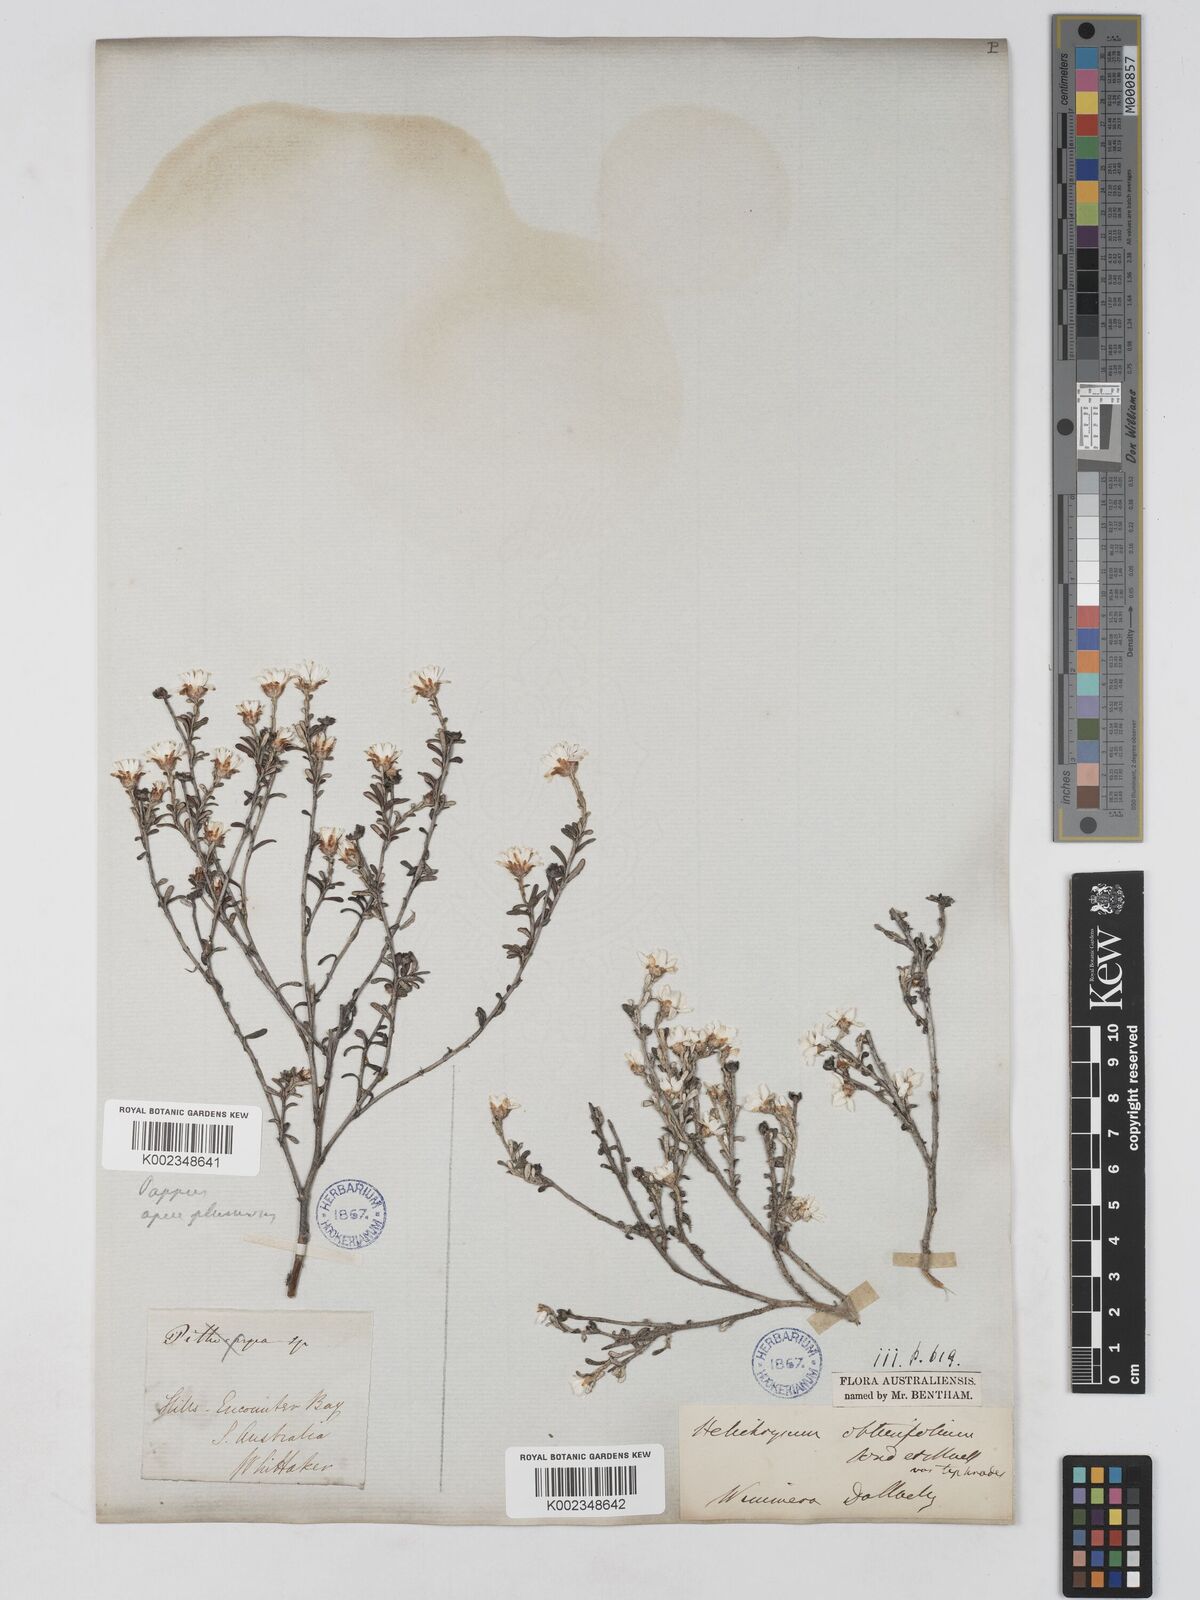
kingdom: Plantae
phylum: Tracheophyta
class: Magnoliopsida
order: Asterales
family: Asteraceae
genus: Argentipallium
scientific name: Argentipallium obtusifolium
